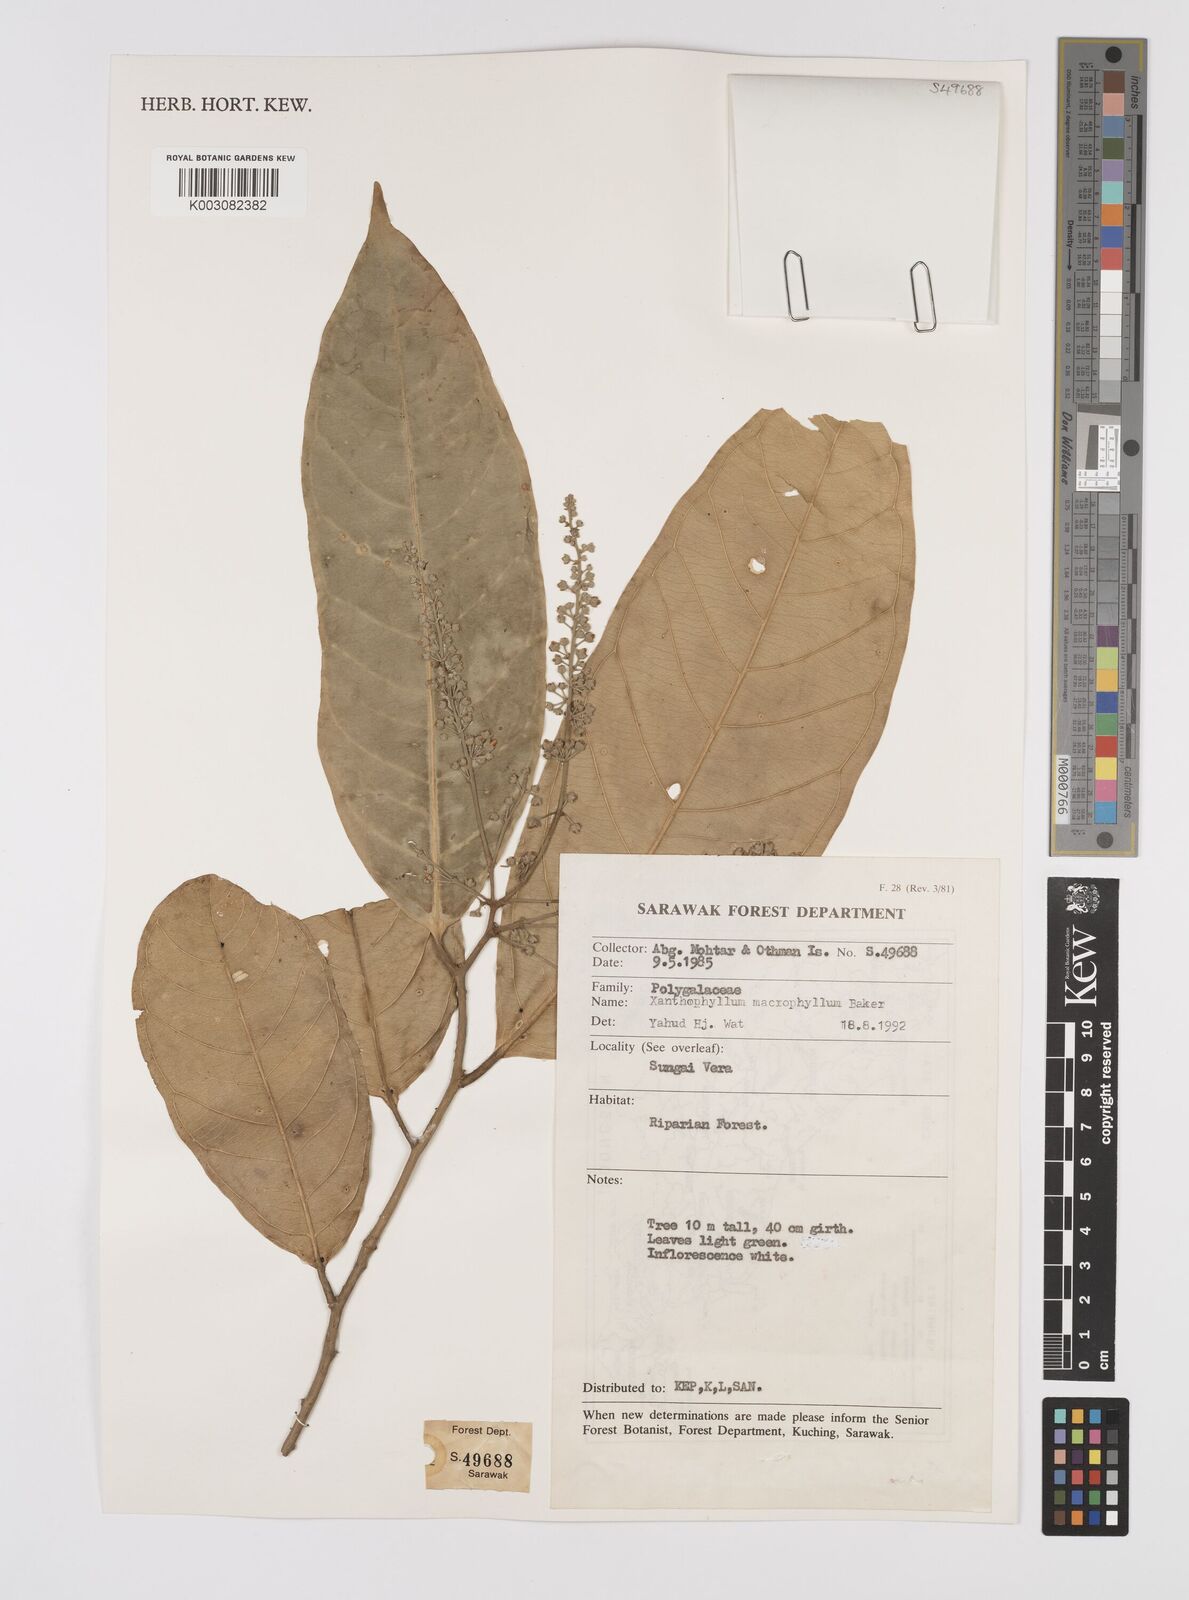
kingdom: Plantae
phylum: Tracheophyta
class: Magnoliopsida
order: Fabales
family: Polygalaceae
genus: Xanthophyllum
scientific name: Xanthophyllum macrophyllum
